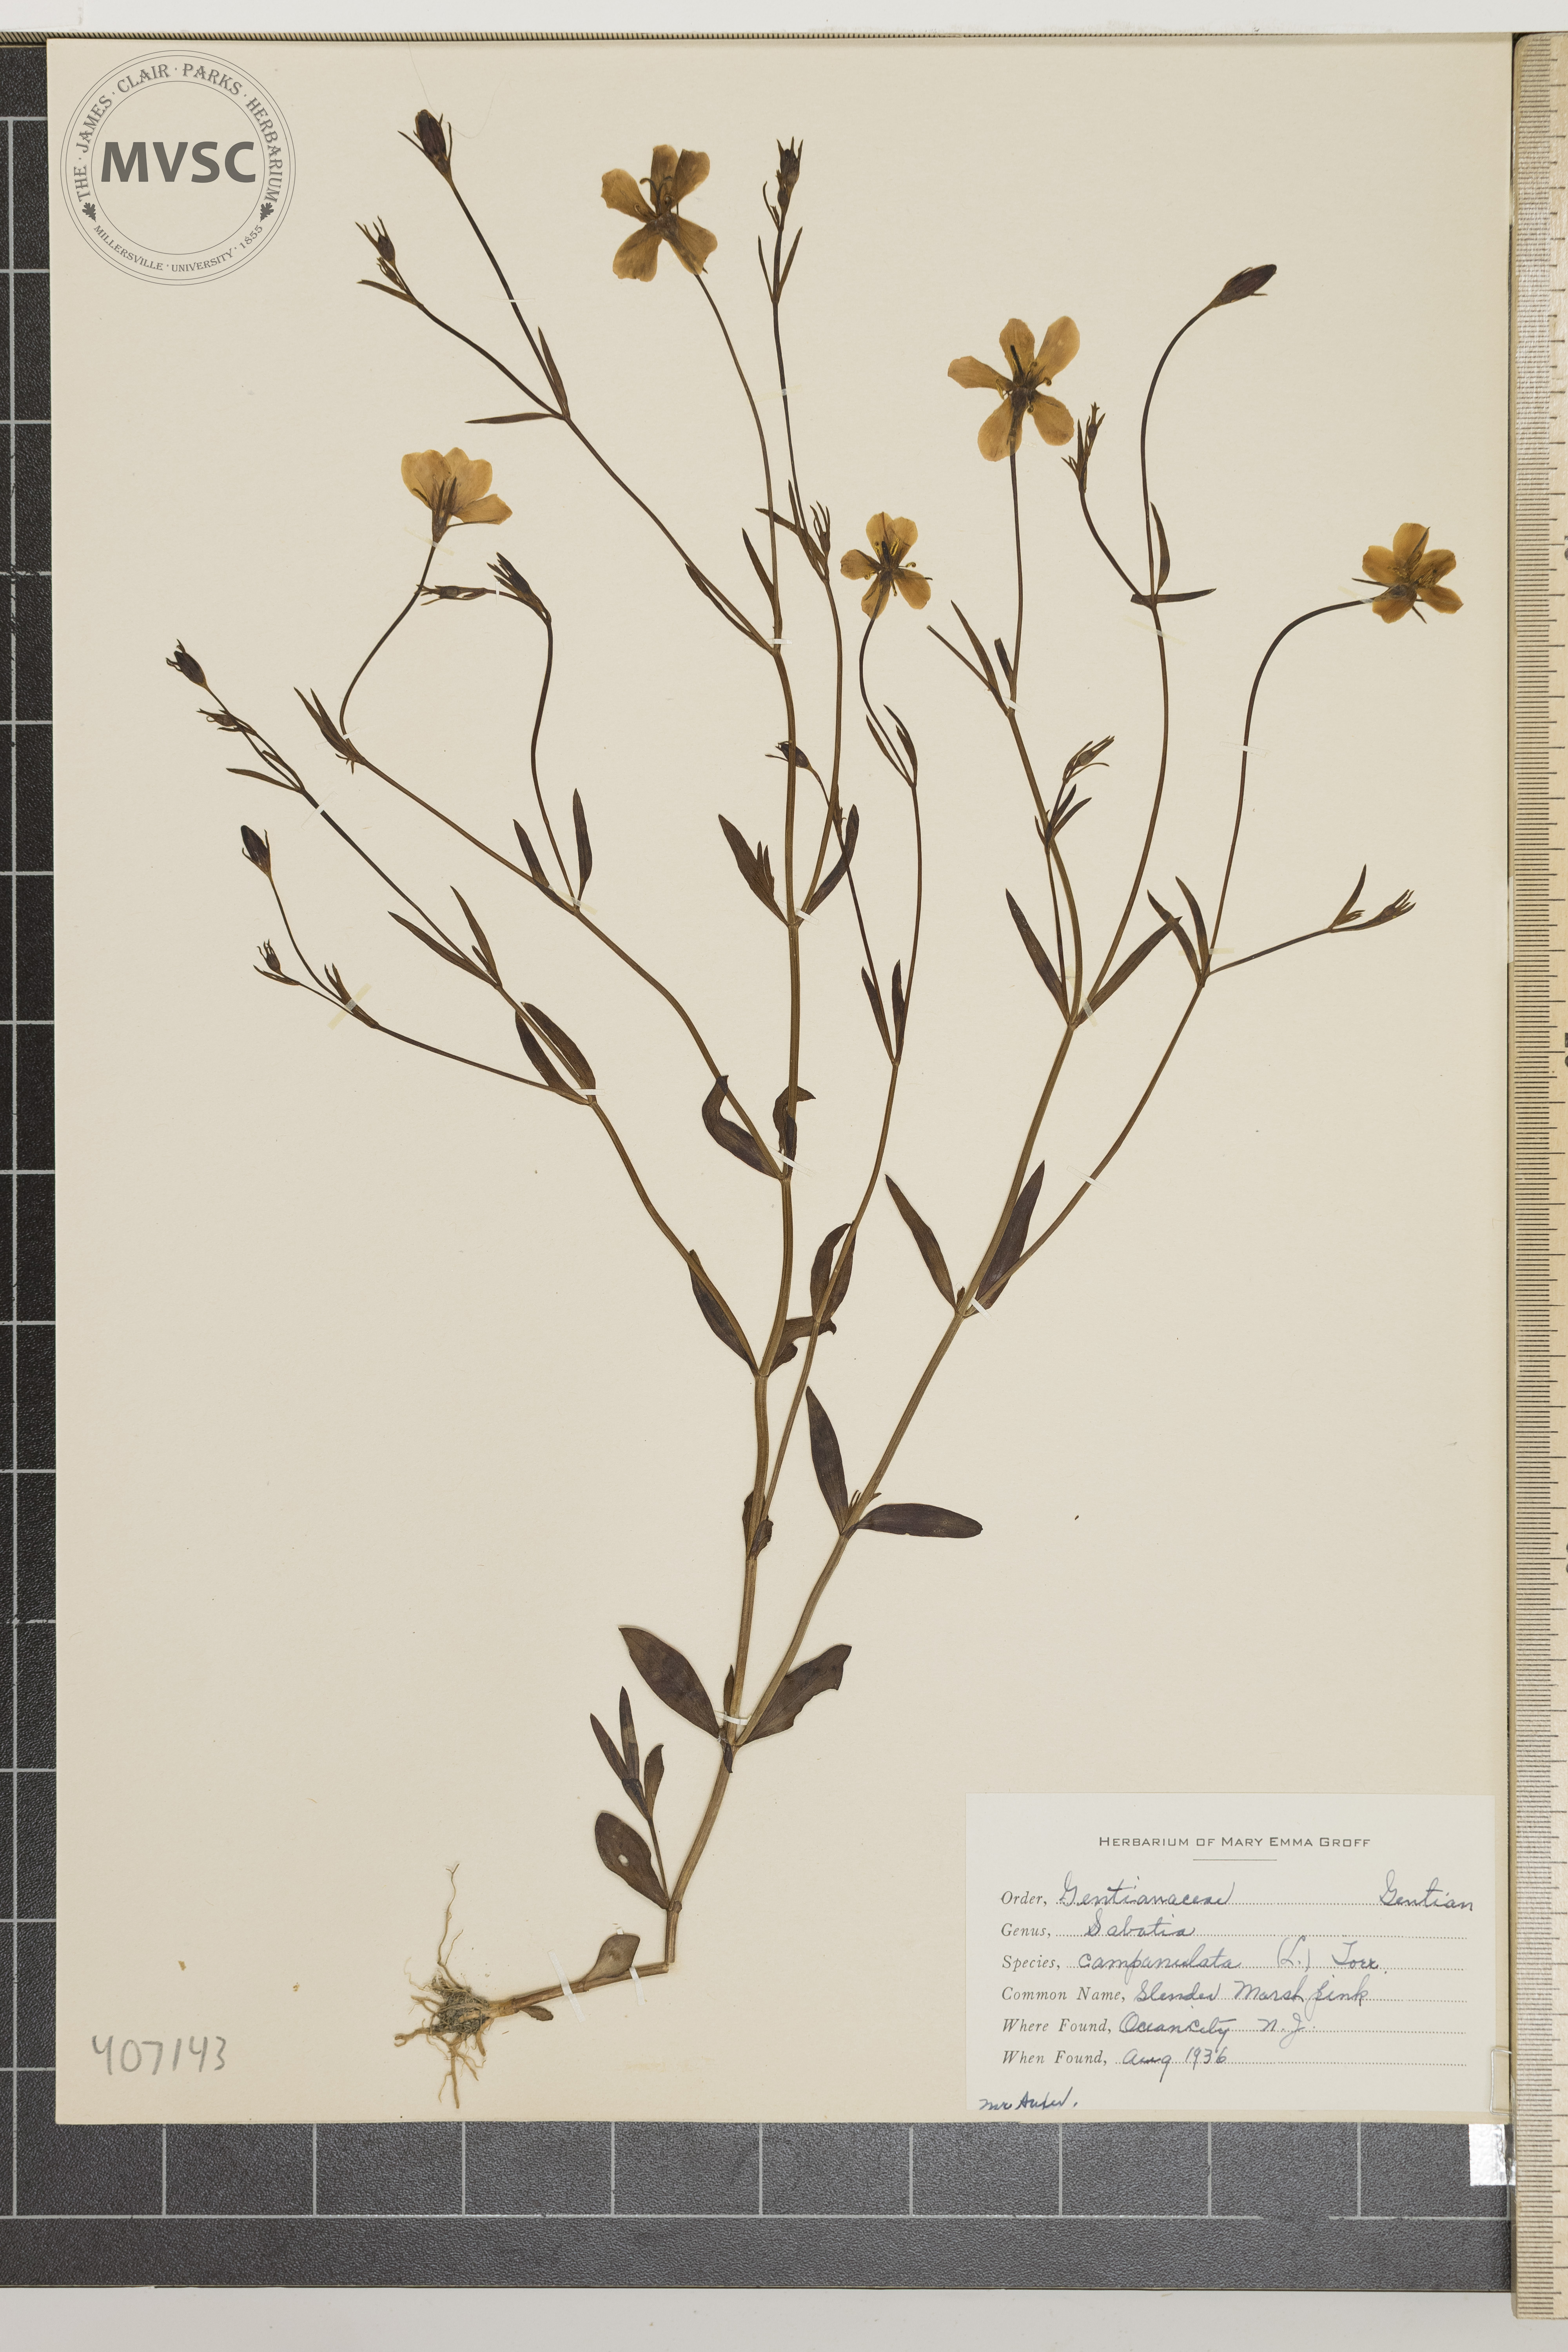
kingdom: Plantae
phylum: Tracheophyta
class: Magnoliopsida
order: Gentianales
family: Gentianaceae
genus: Sabatia
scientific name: Sabatia campanulata
